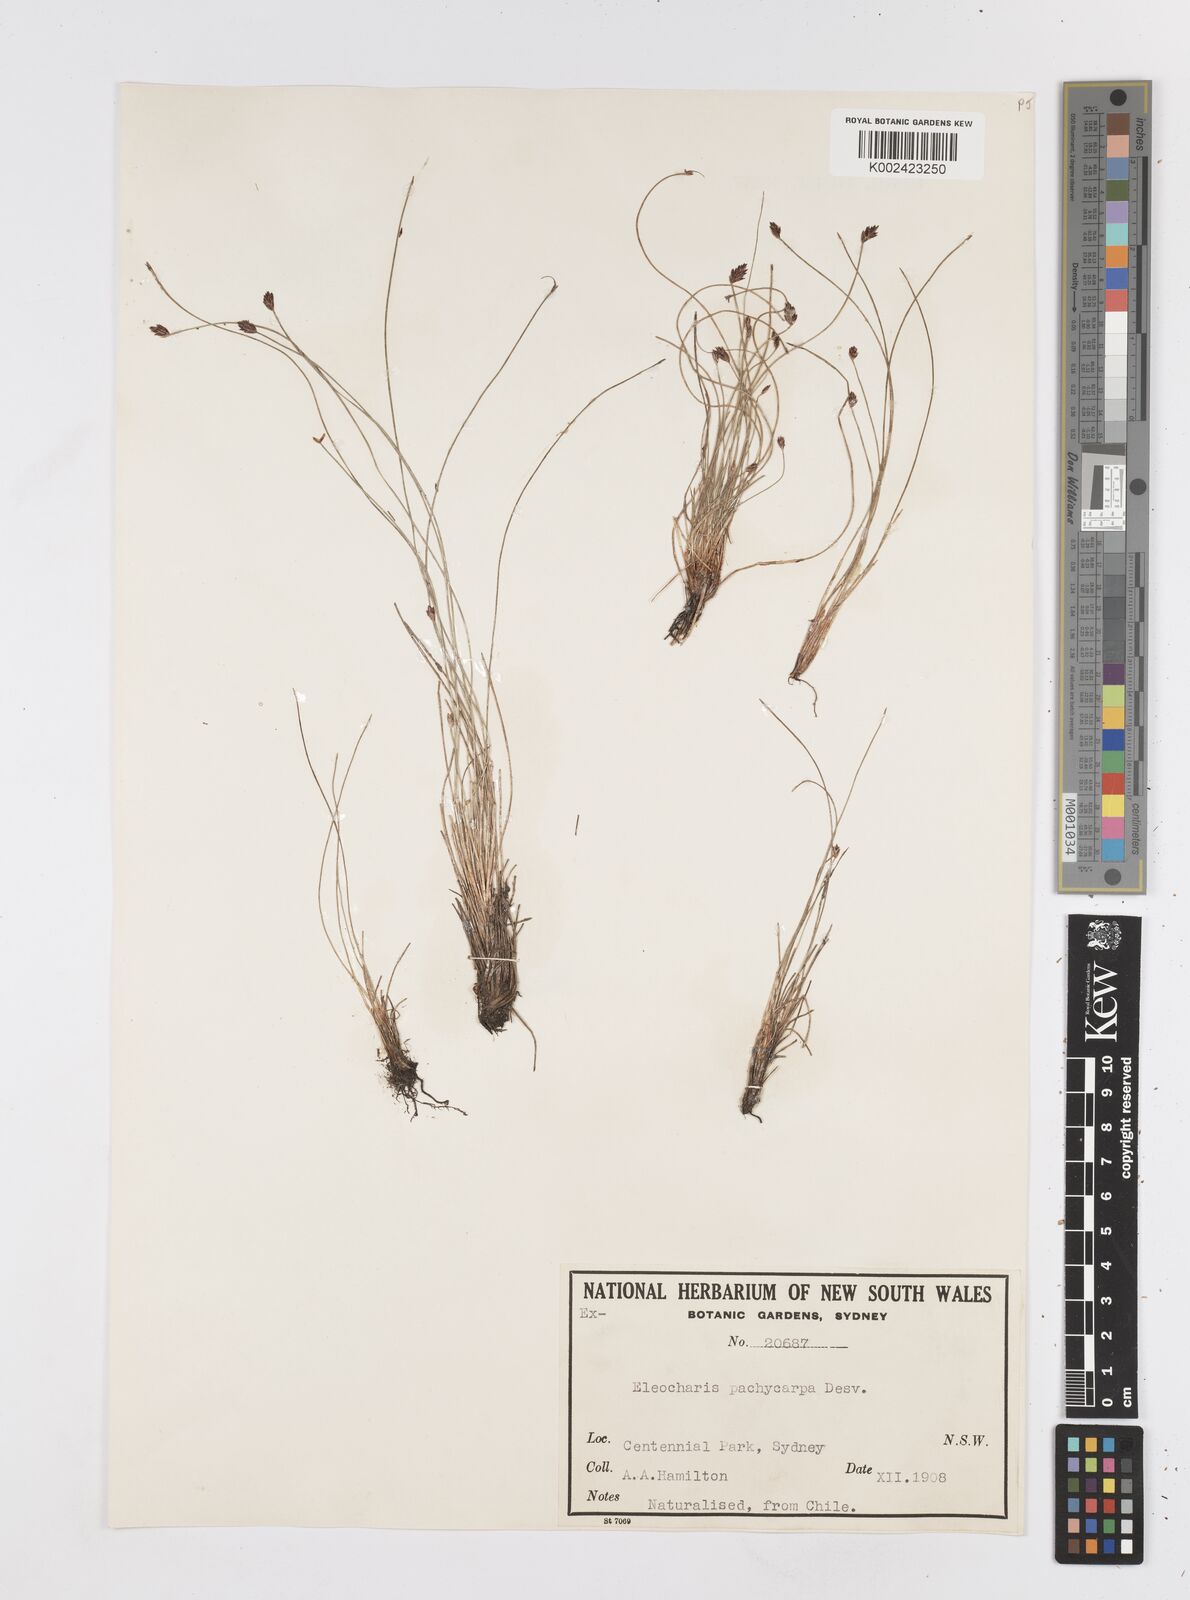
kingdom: Plantae
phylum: Tracheophyta
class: Liliopsida
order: Poales
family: Cyperaceae
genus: Eleocharis
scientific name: Eleocharis pachycarpa
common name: Black sand spikerush
